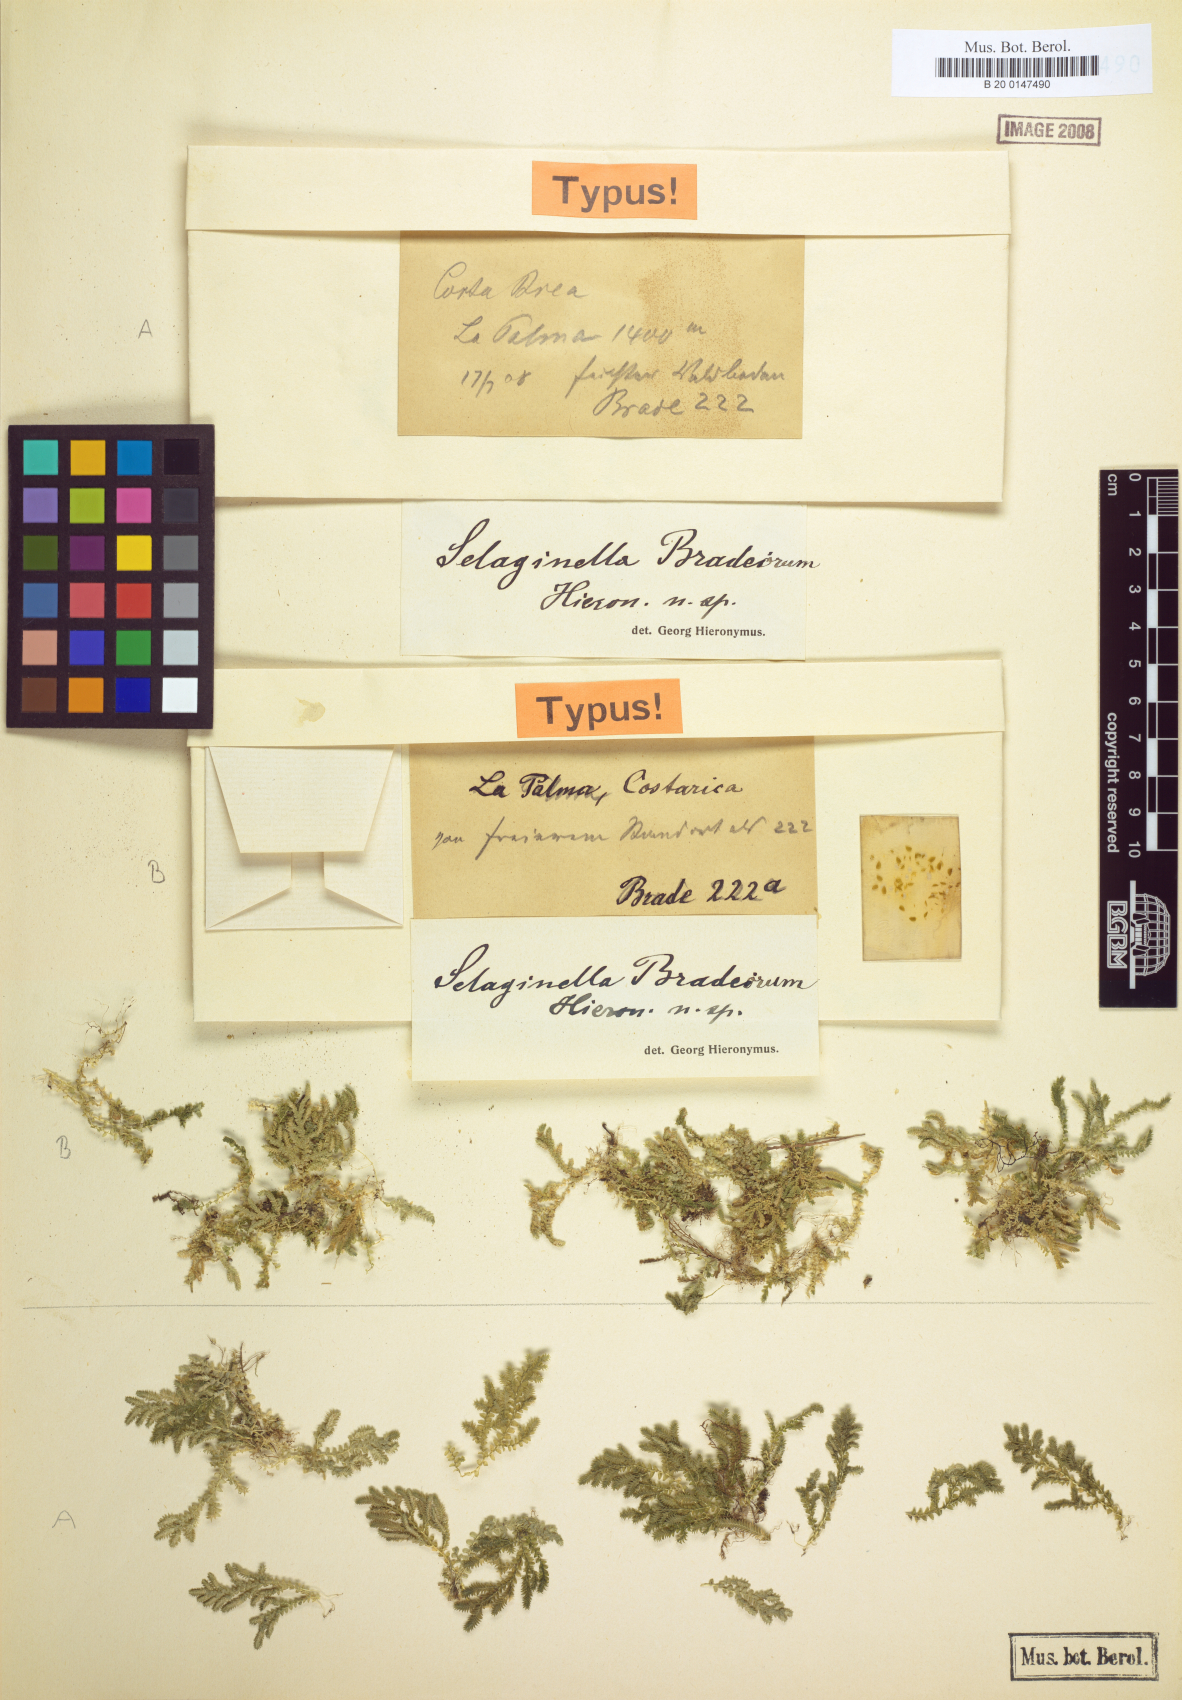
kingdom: Plantae
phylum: Tracheophyta
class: Lycopodiopsida
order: Selaginellales
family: Selaginellaceae
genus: Selaginella
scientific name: Selaginella popayanensis
